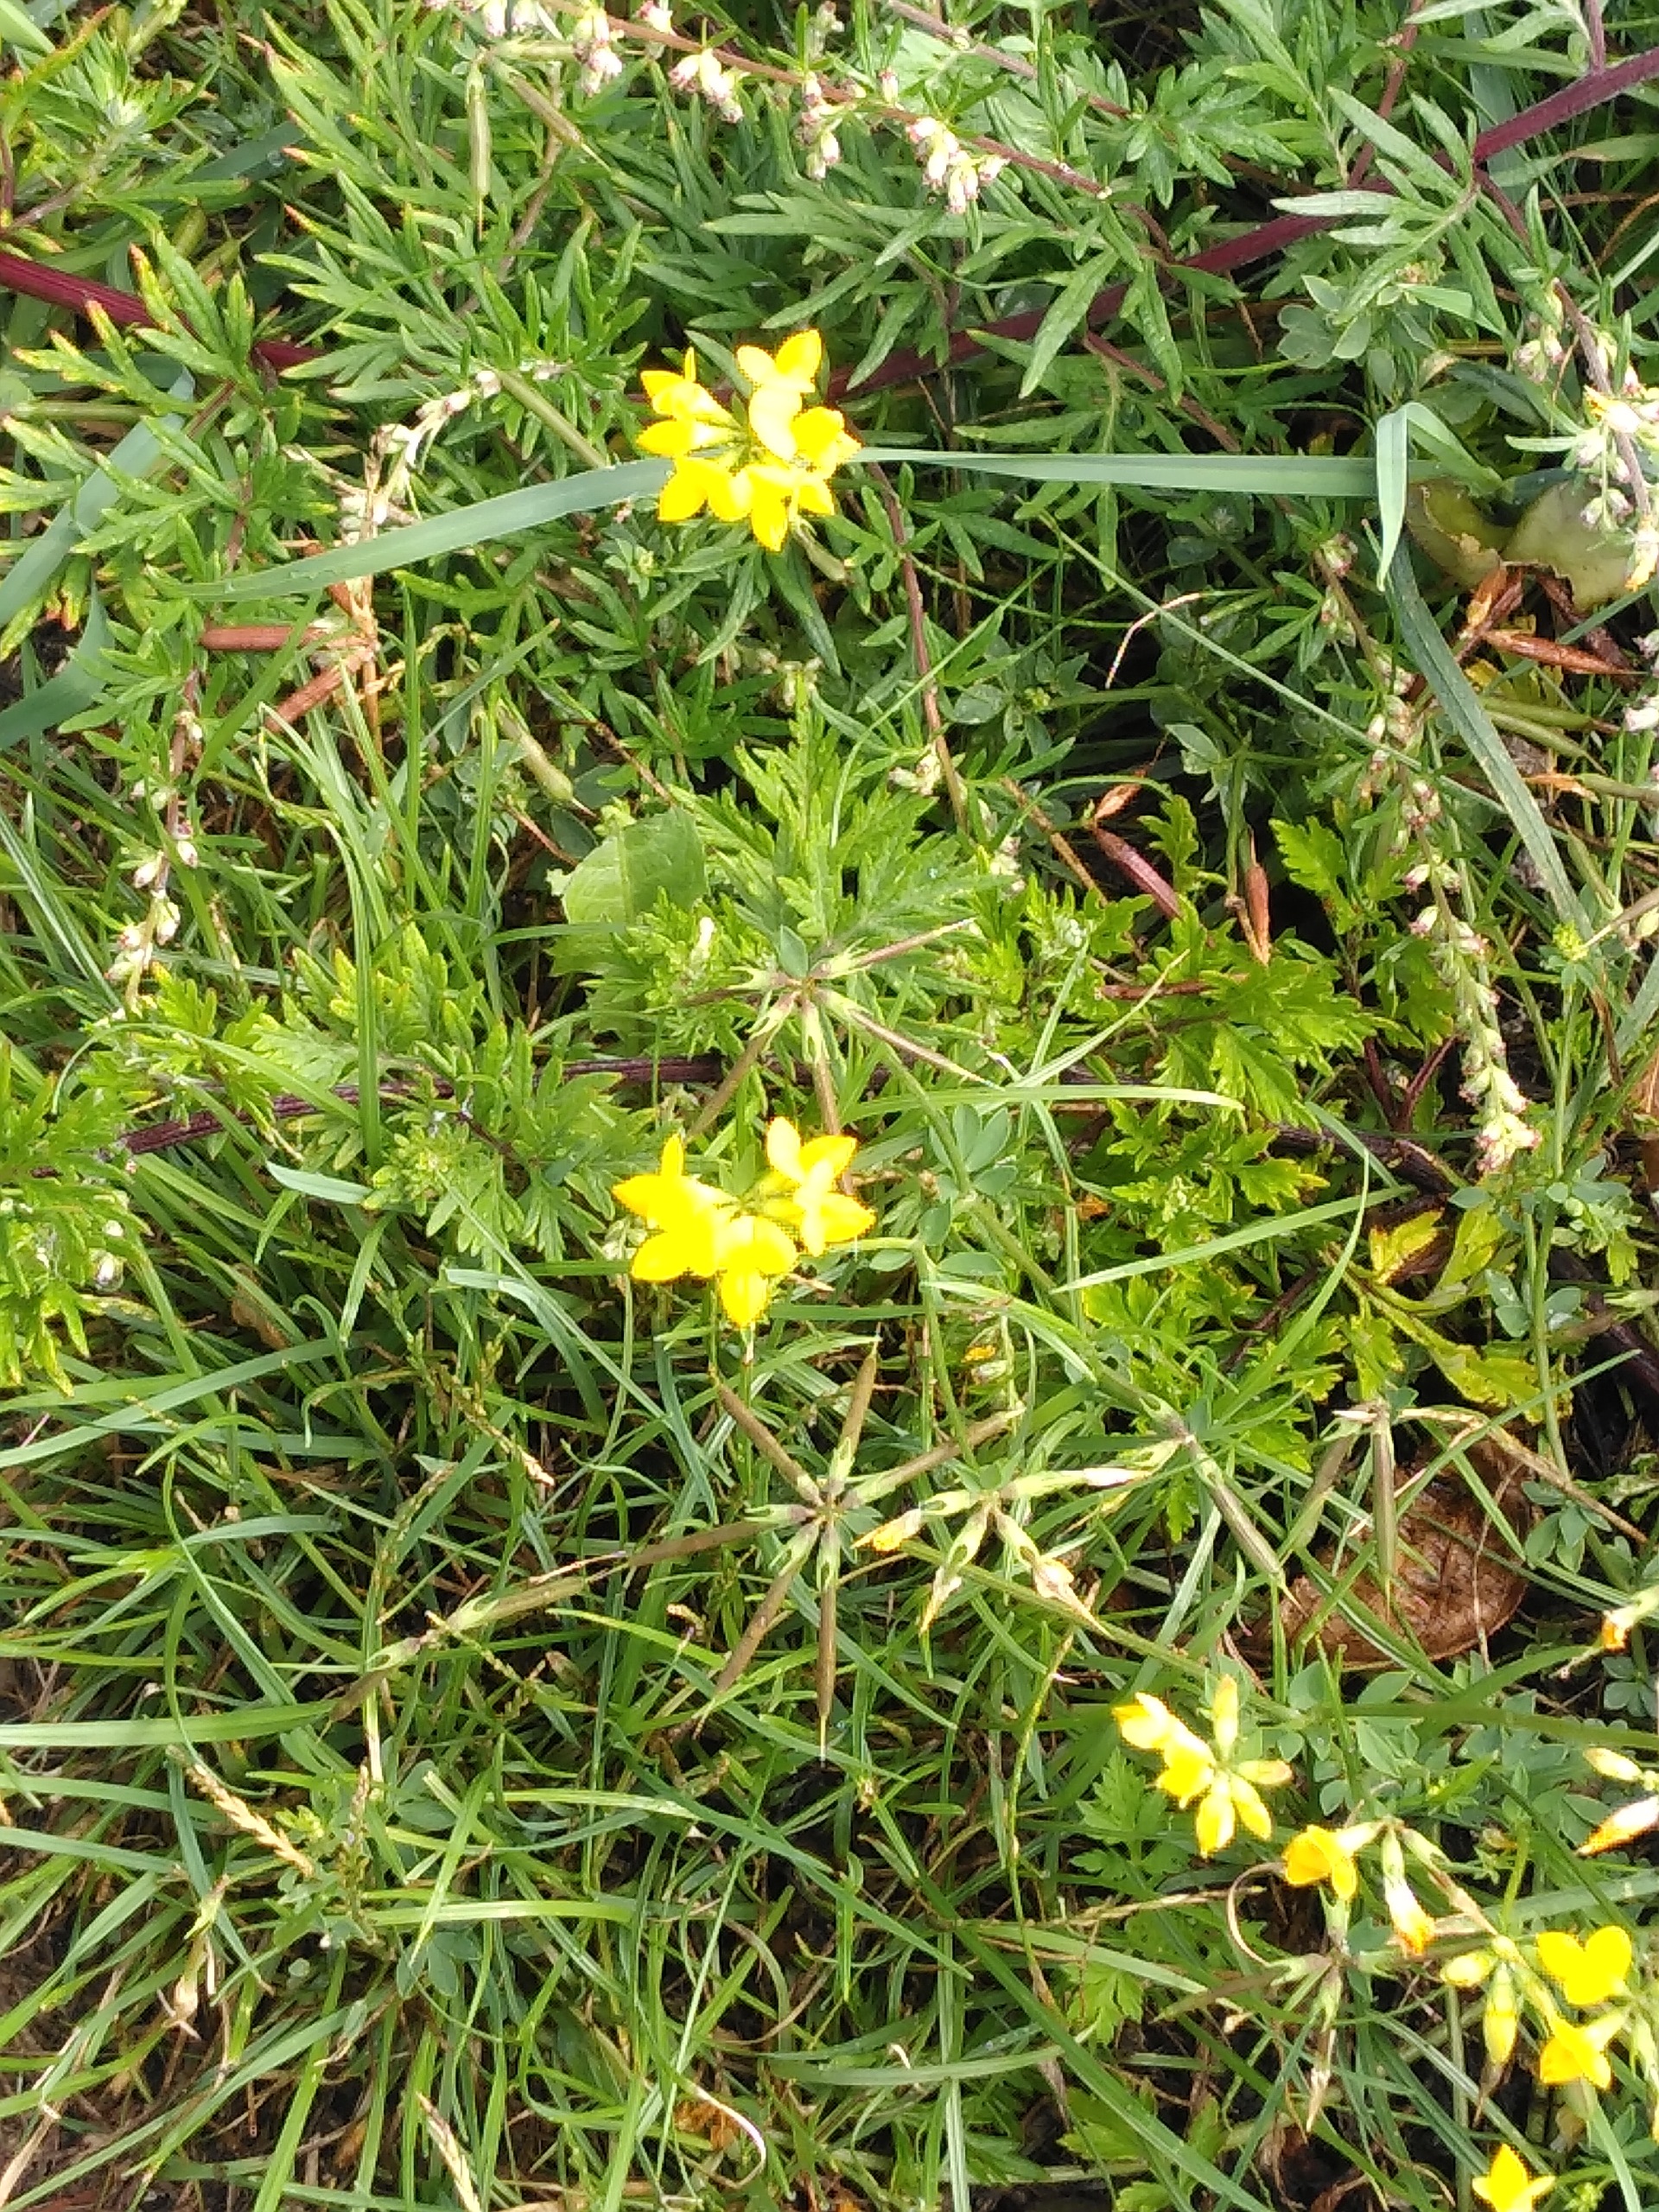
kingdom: Plantae
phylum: Tracheophyta
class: Magnoliopsida
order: Fabales
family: Fabaceae
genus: Lotus
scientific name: Lotus corniculatus
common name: Almindelig kællingetand
